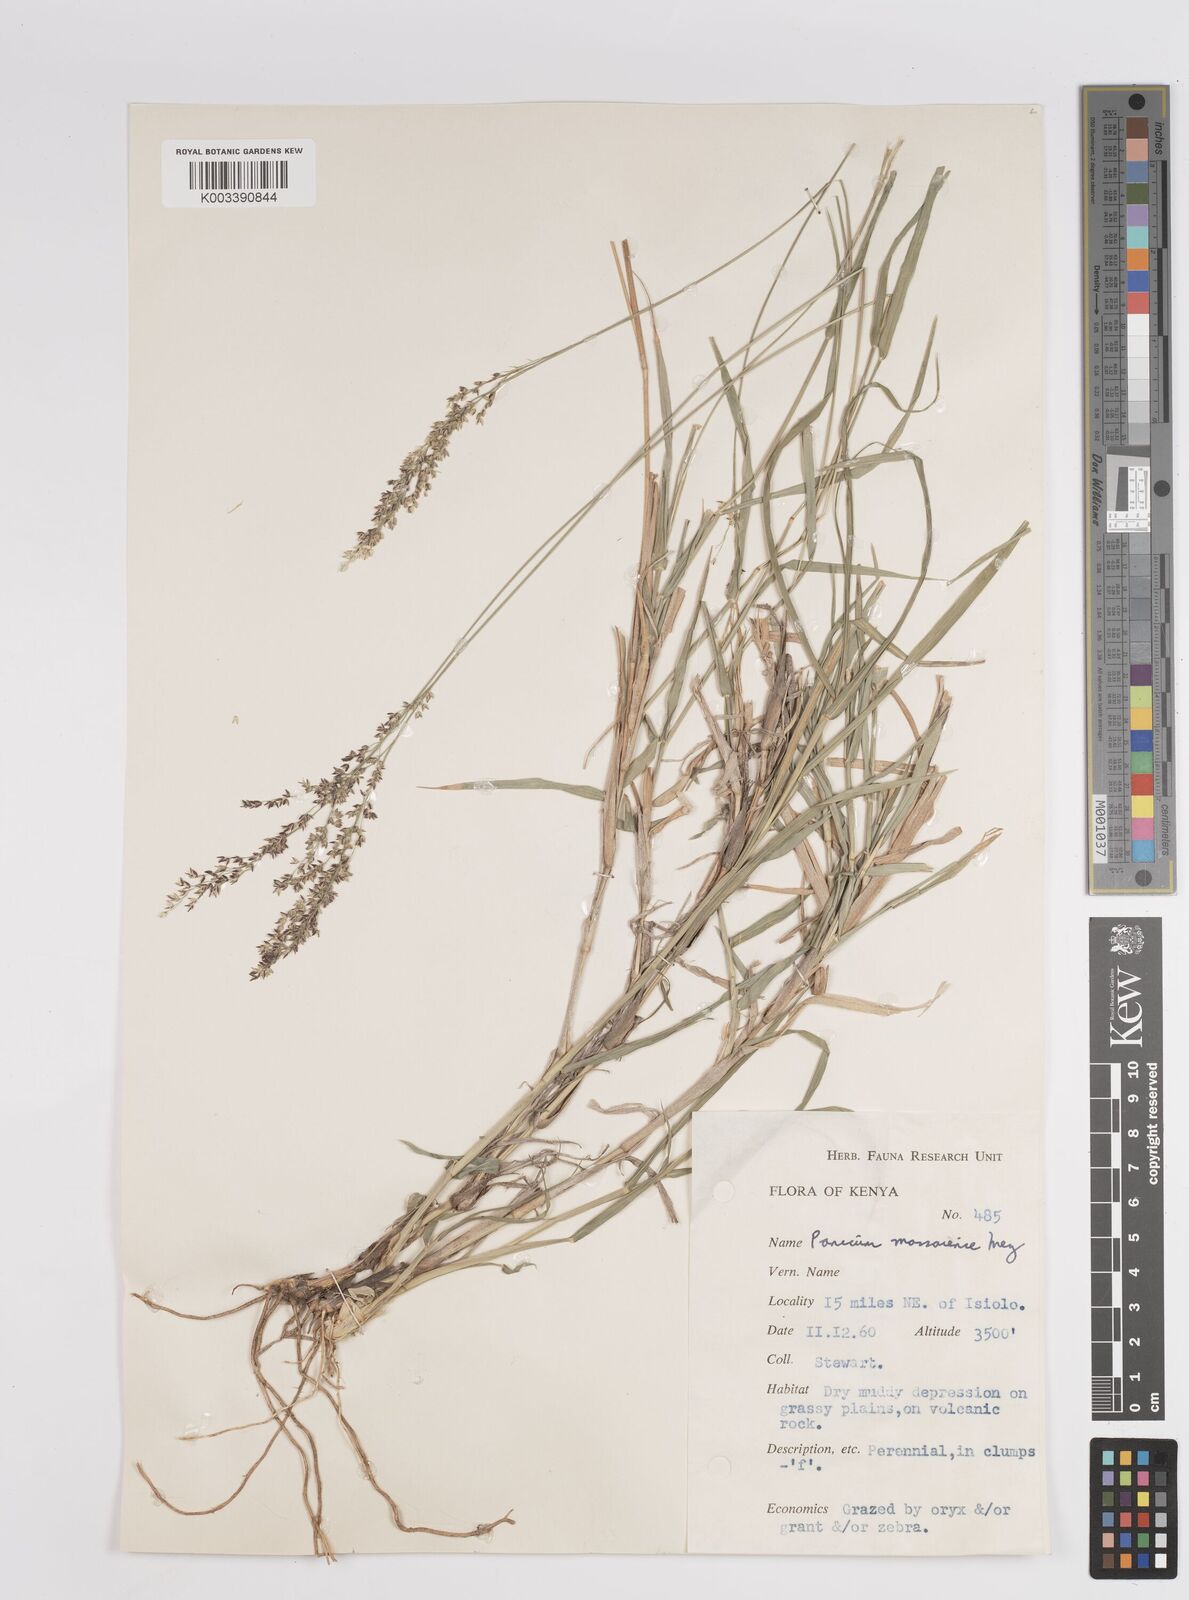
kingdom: Plantae
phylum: Tracheophyta
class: Liliopsida
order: Poales
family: Poaceae
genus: Panicum
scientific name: Panicum coloratum
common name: Kleingrass
